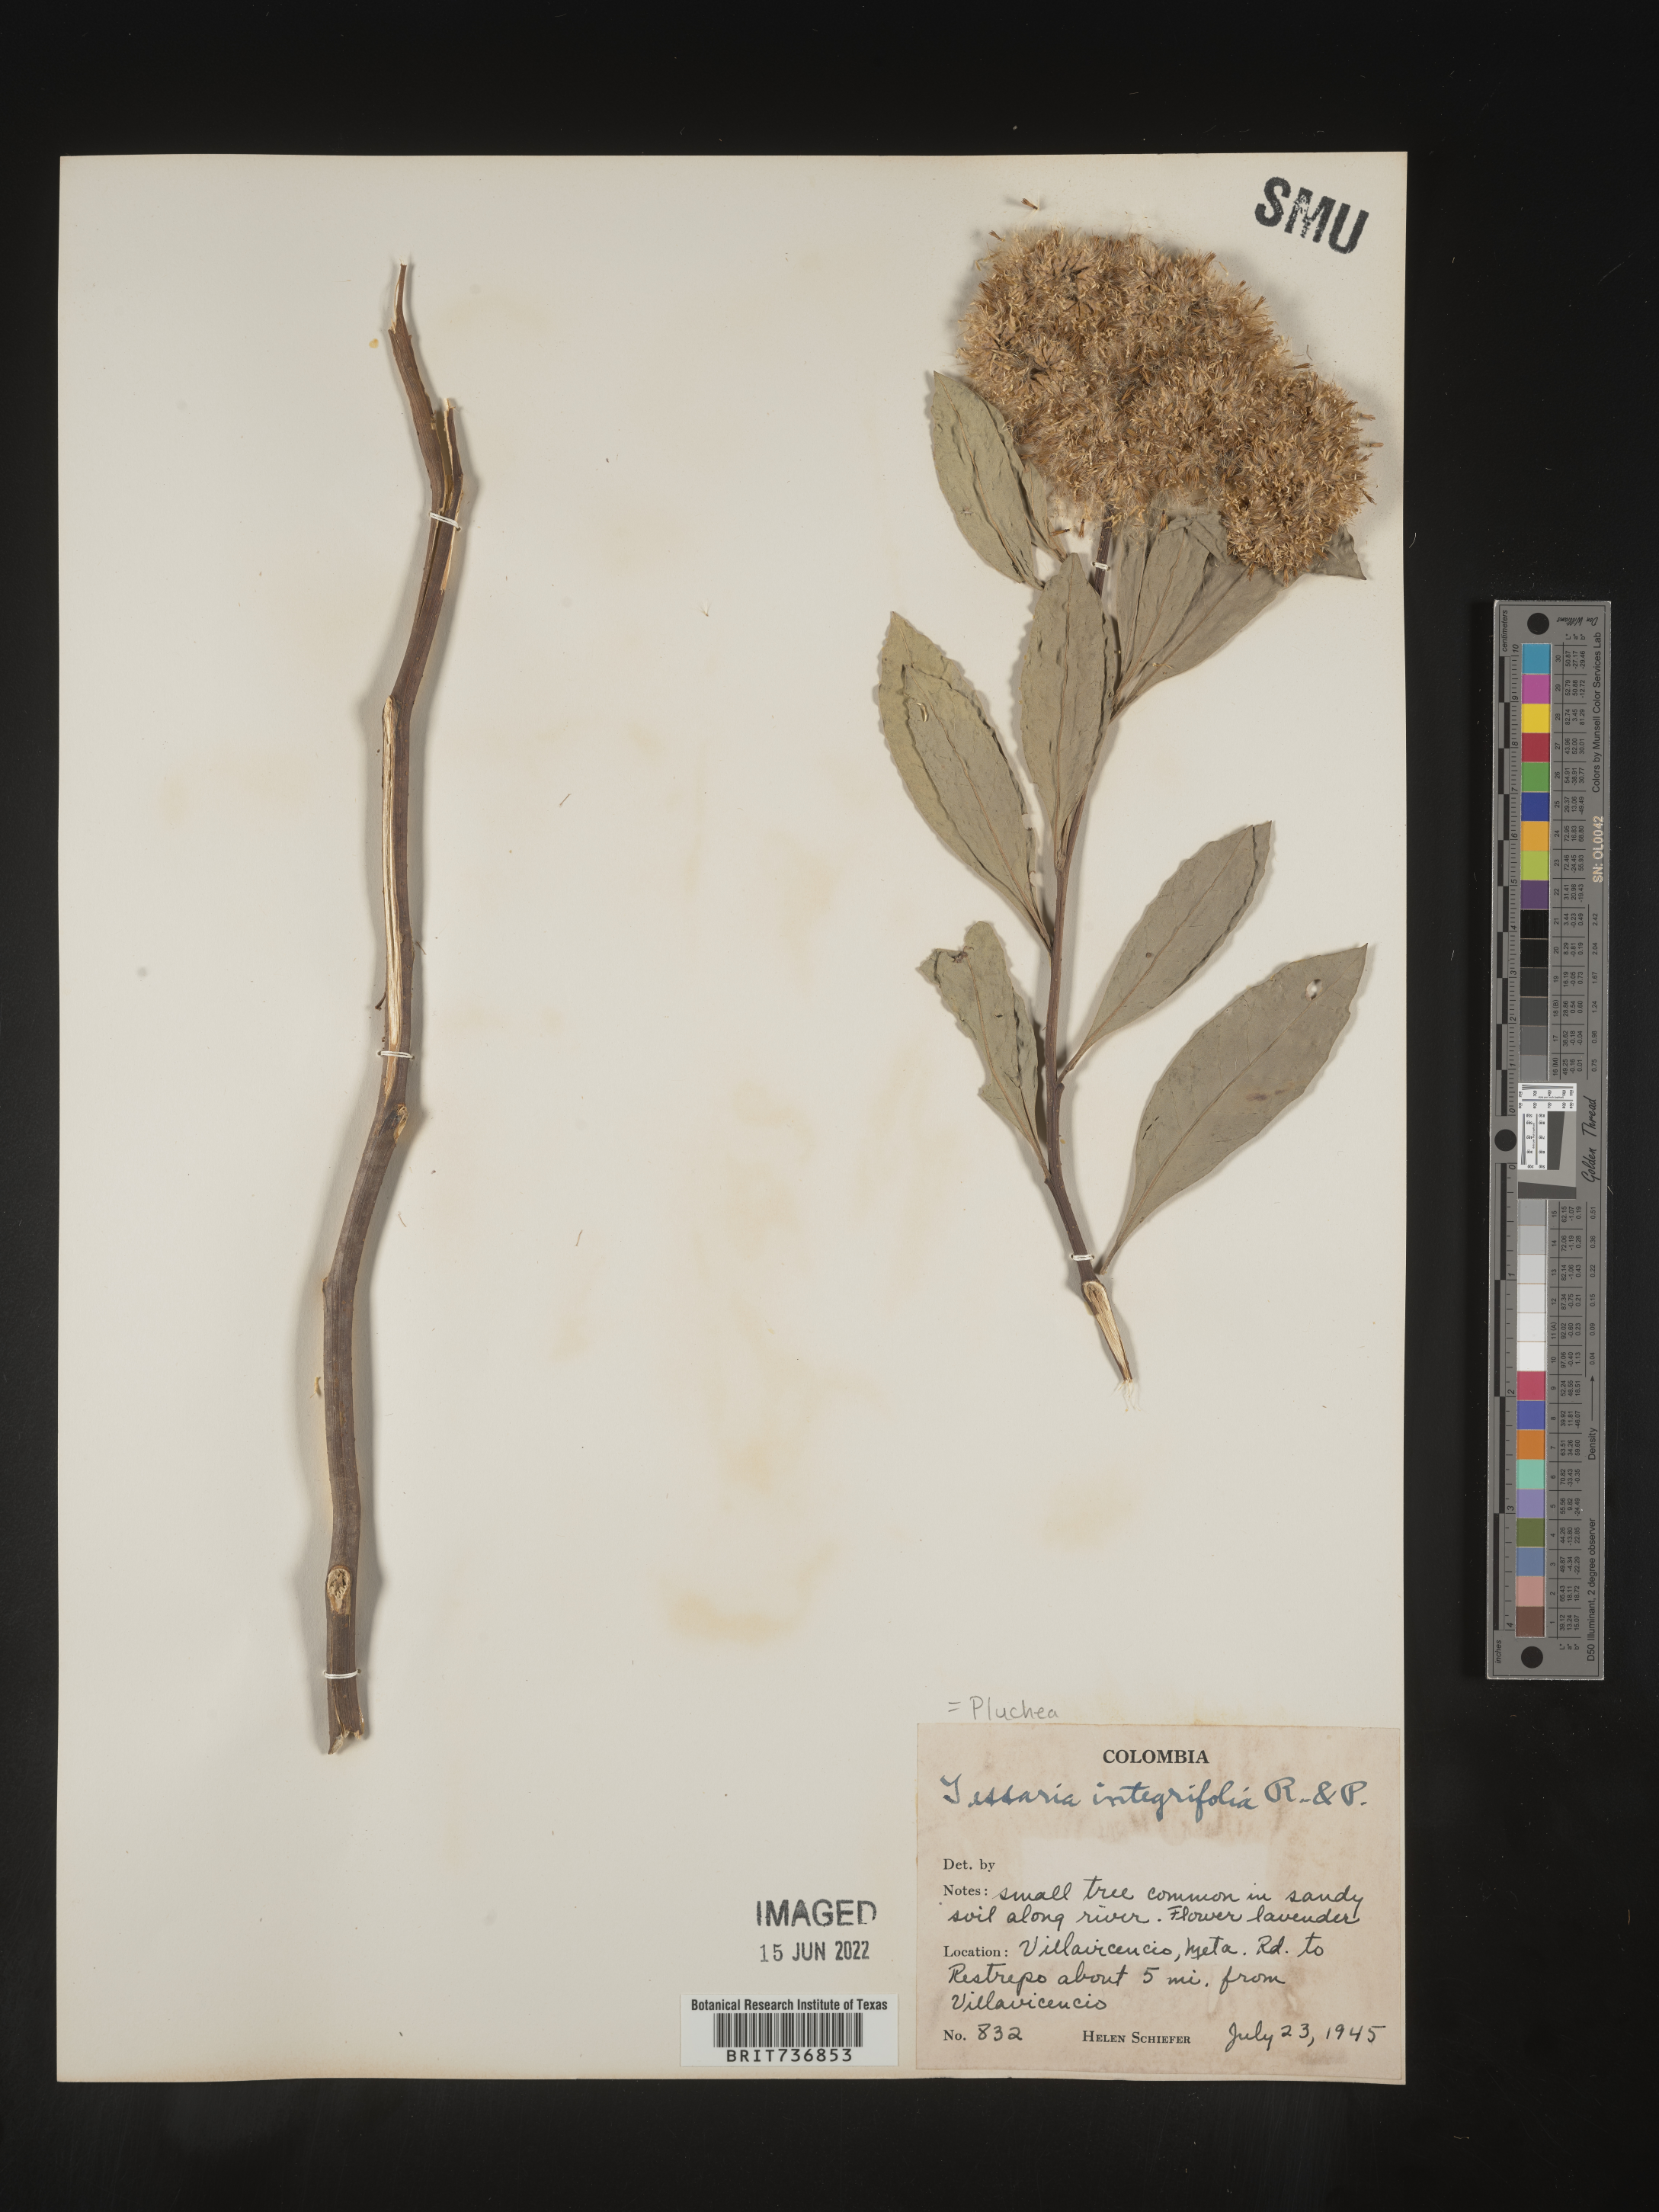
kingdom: Plantae
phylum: Tracheophyta
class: Magnoliopsida
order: Asterales
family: Asteraceae
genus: Pluchea
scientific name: Pluchea
